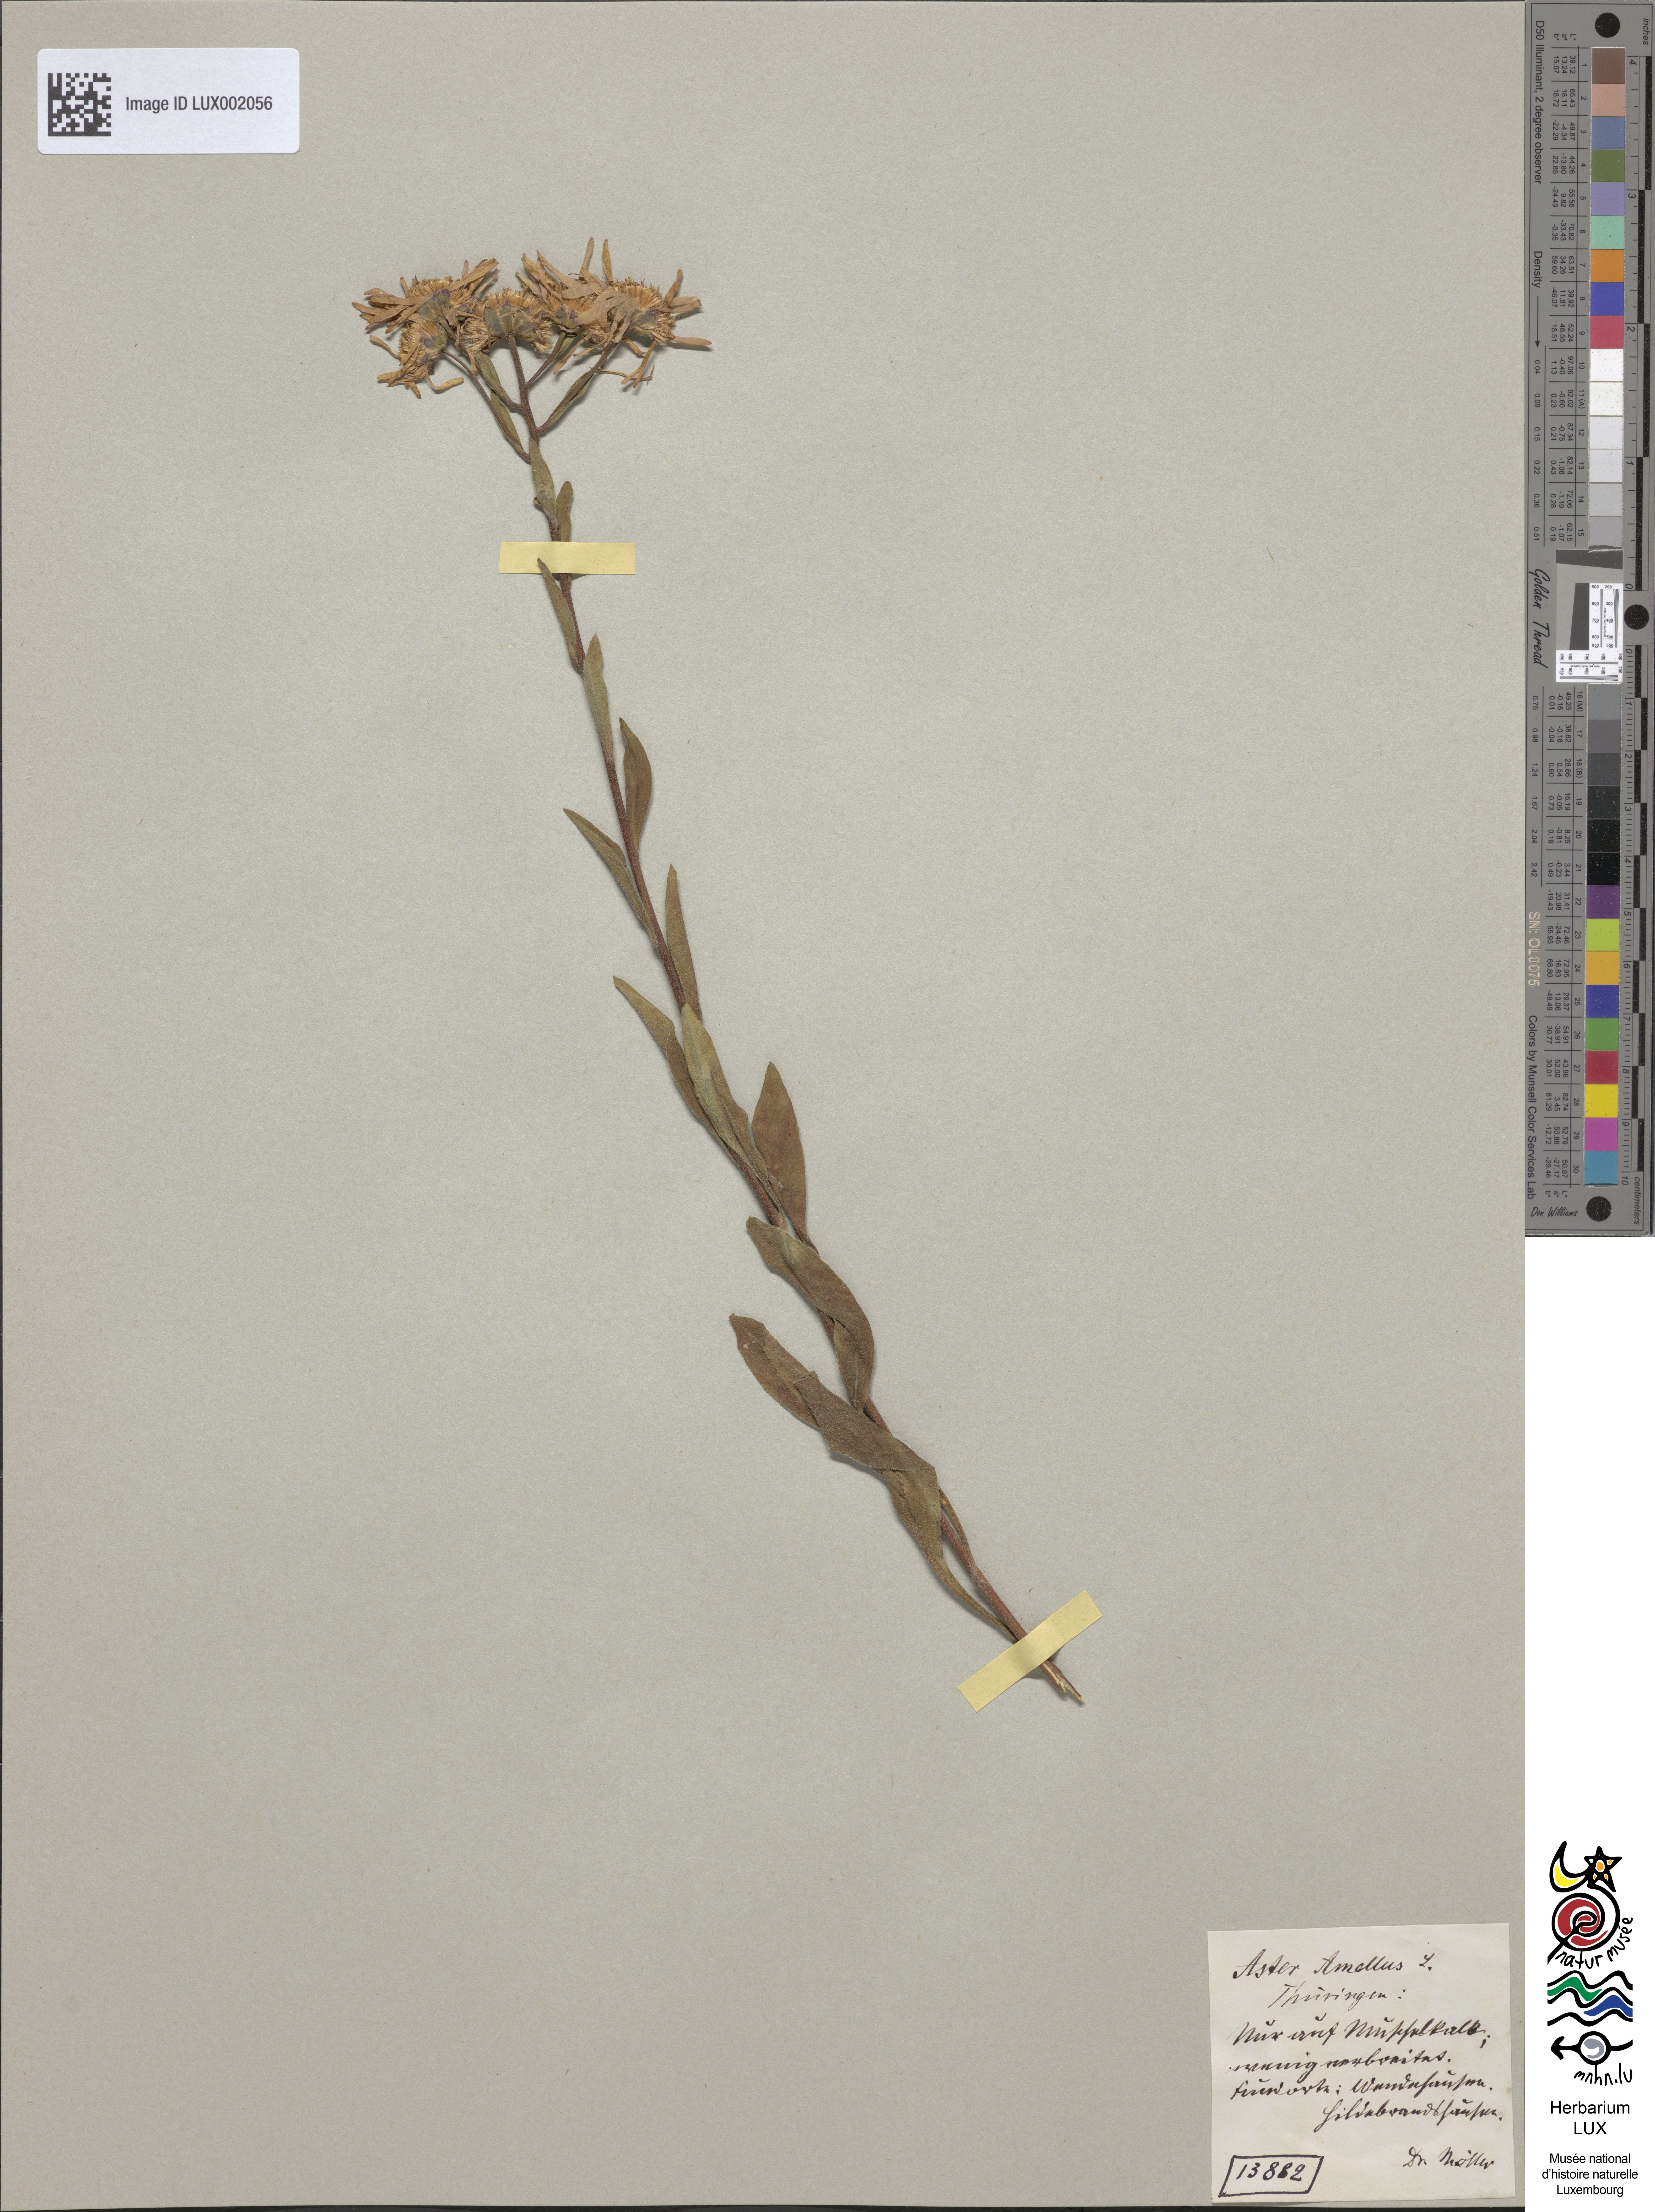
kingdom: Plantae
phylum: Tracheophyta
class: Magnoliopsida
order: Asterales
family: Asteraceae
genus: Aster
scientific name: Aster amellus
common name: European michaelmas daisy
